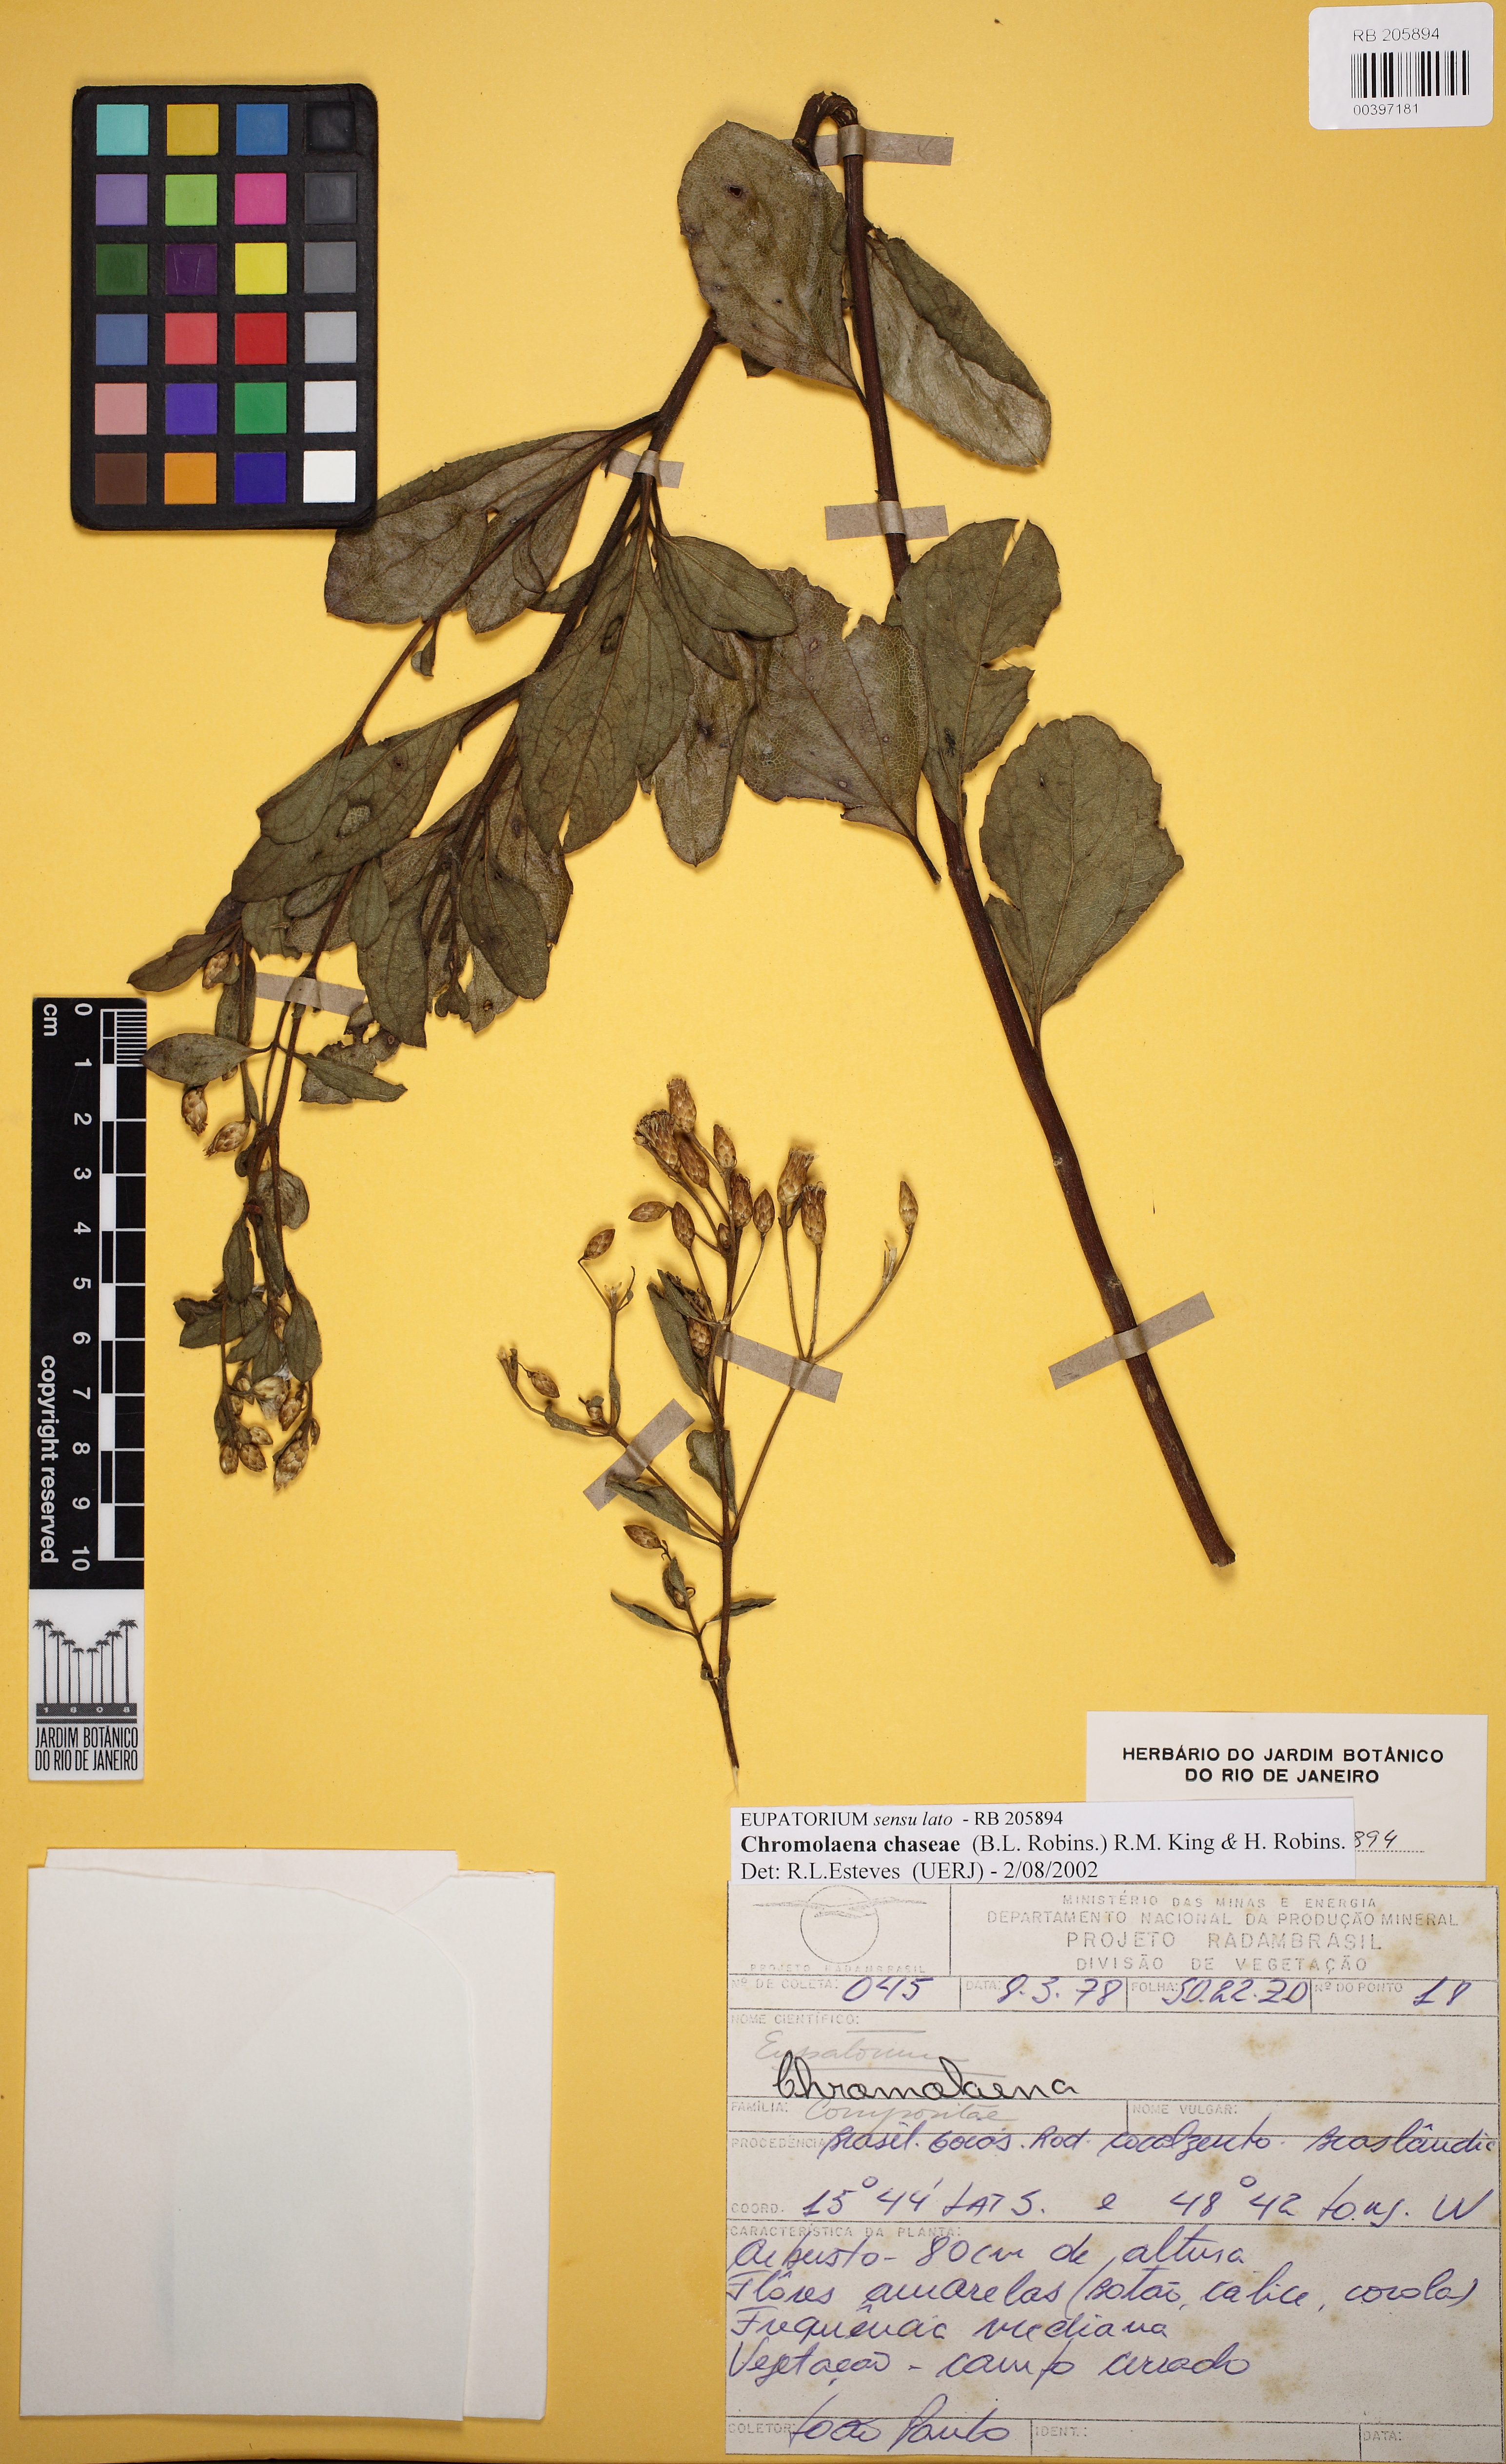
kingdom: Plantae
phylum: Tracheophyta
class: Magnoliopsida
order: Asterales
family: Asteraceae
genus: Chromolaena
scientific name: Chromolaena chaseae
